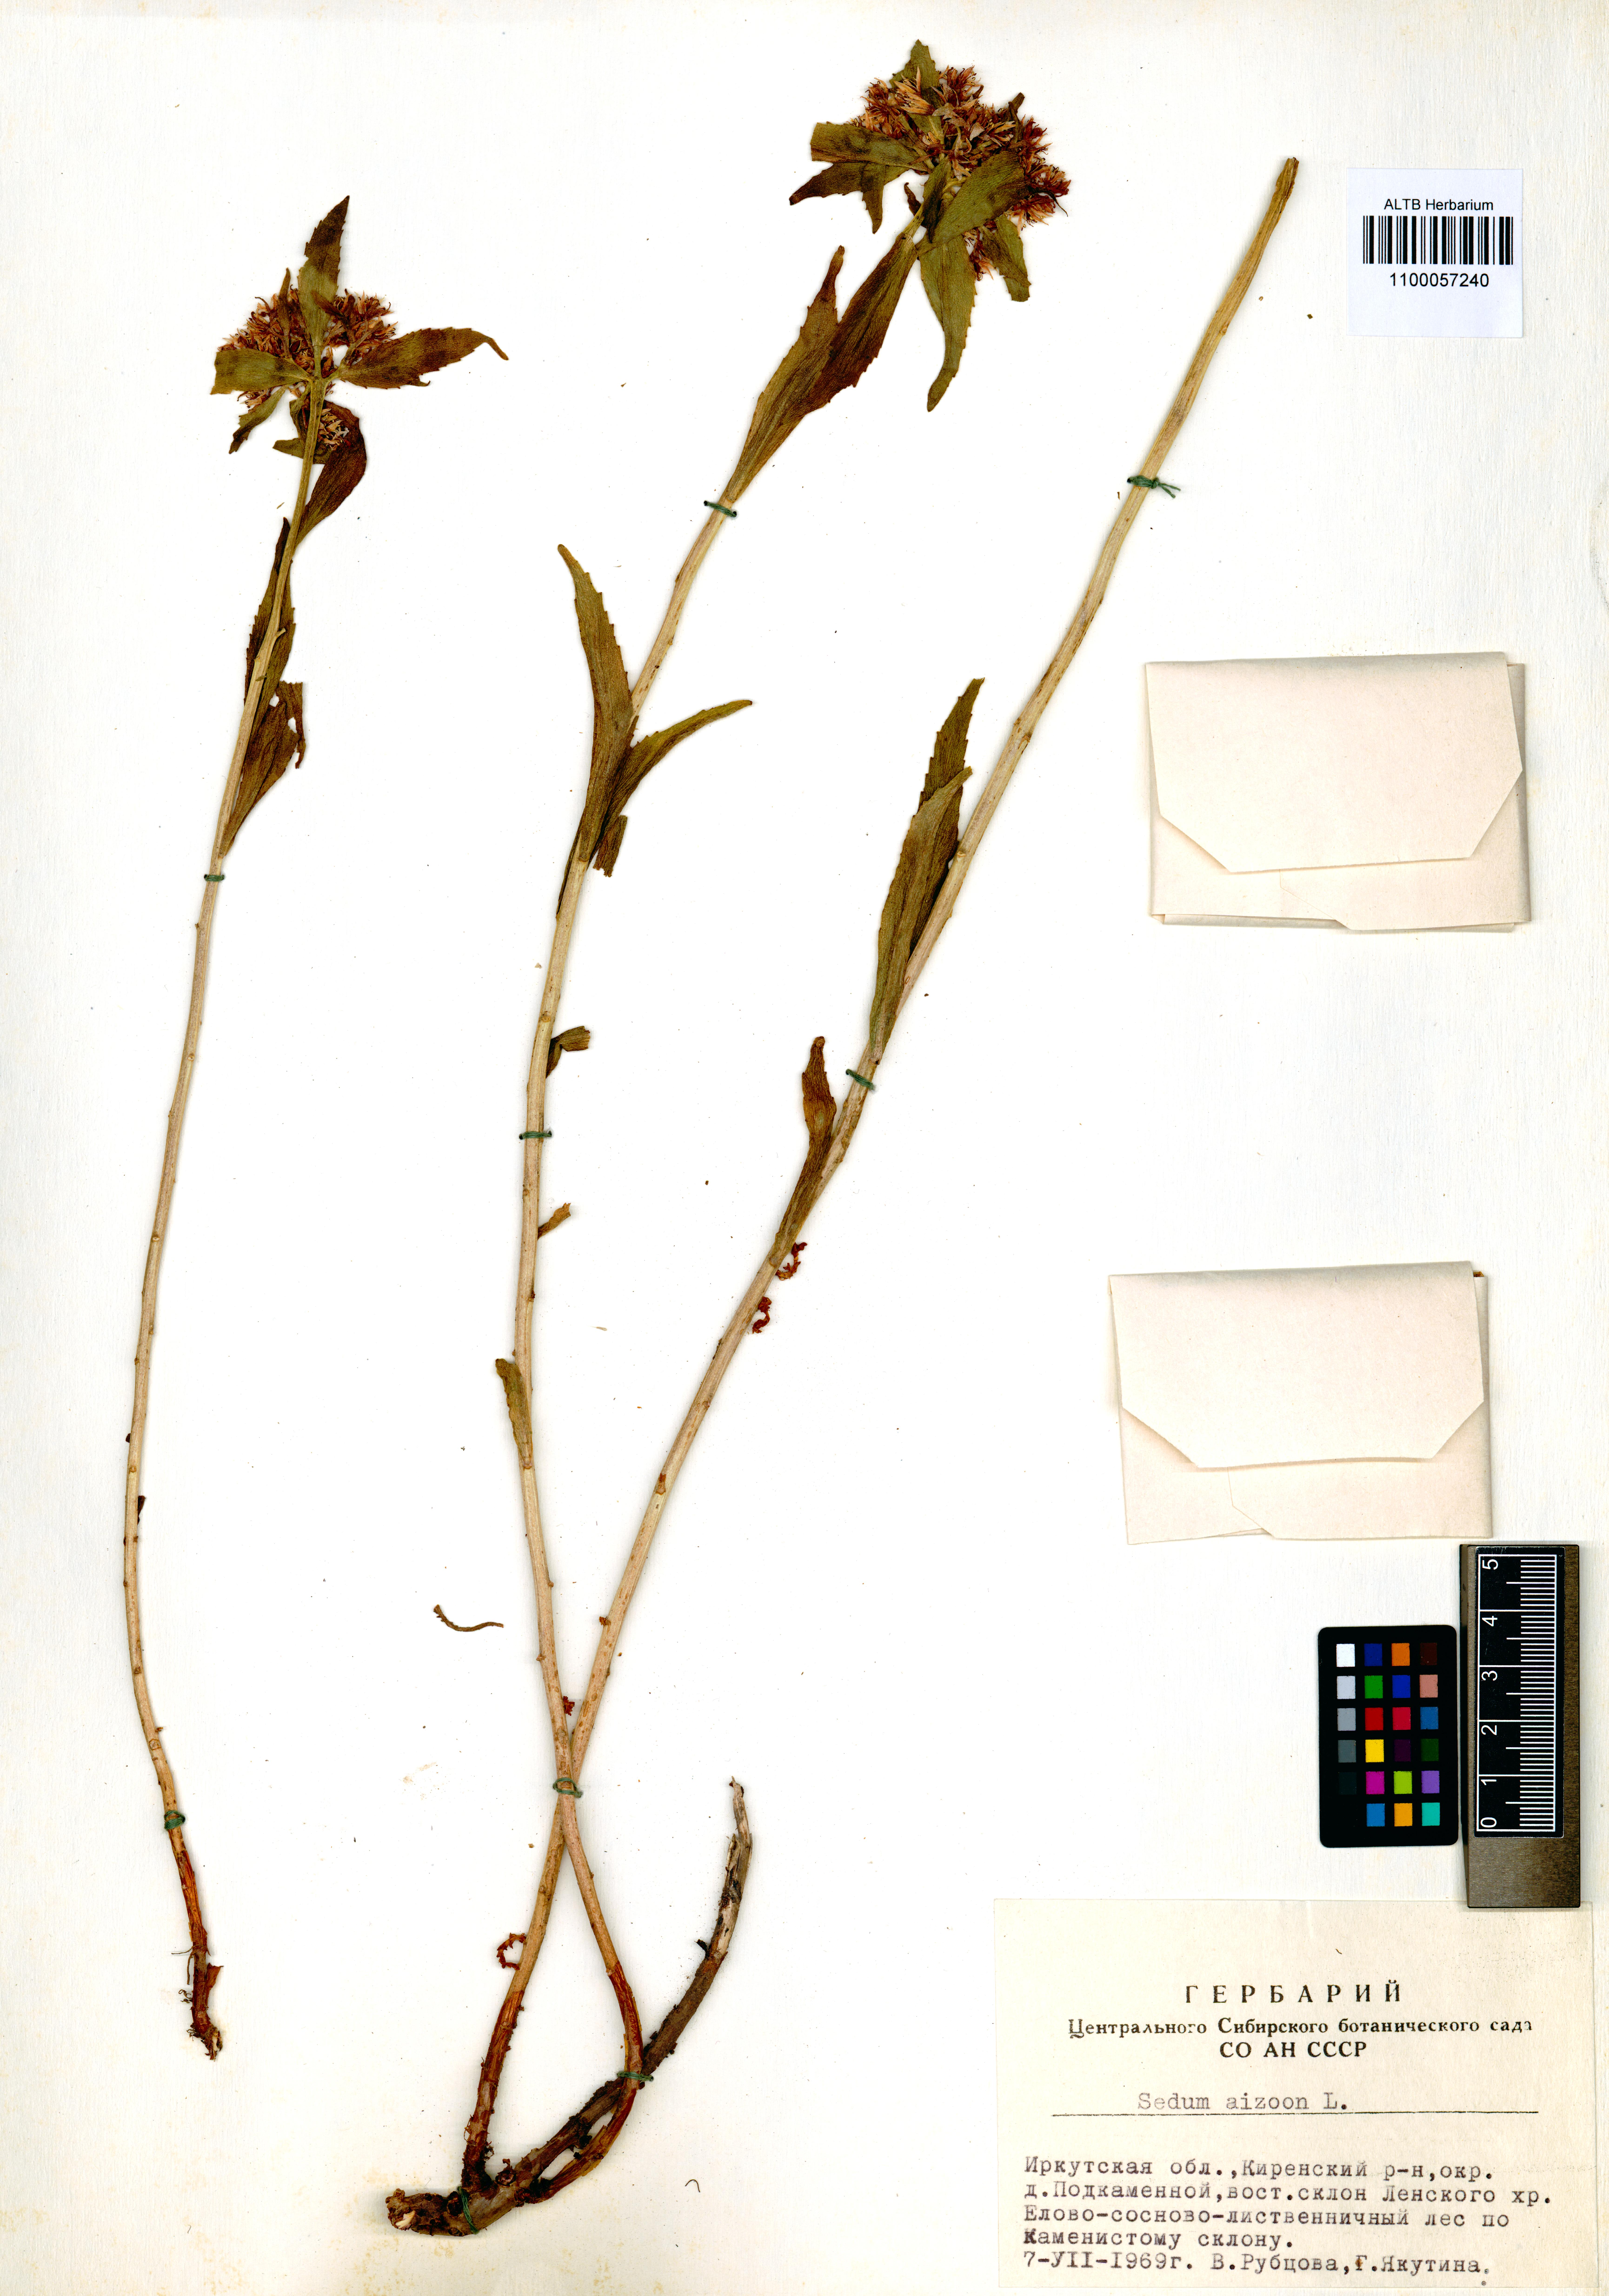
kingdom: Plantae
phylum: Tracheophyta
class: Magnoliopsida
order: Saxifragales
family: Crassulaceae
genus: Phedimus
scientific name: Phedimus aizoon
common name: Orpin aizoon
